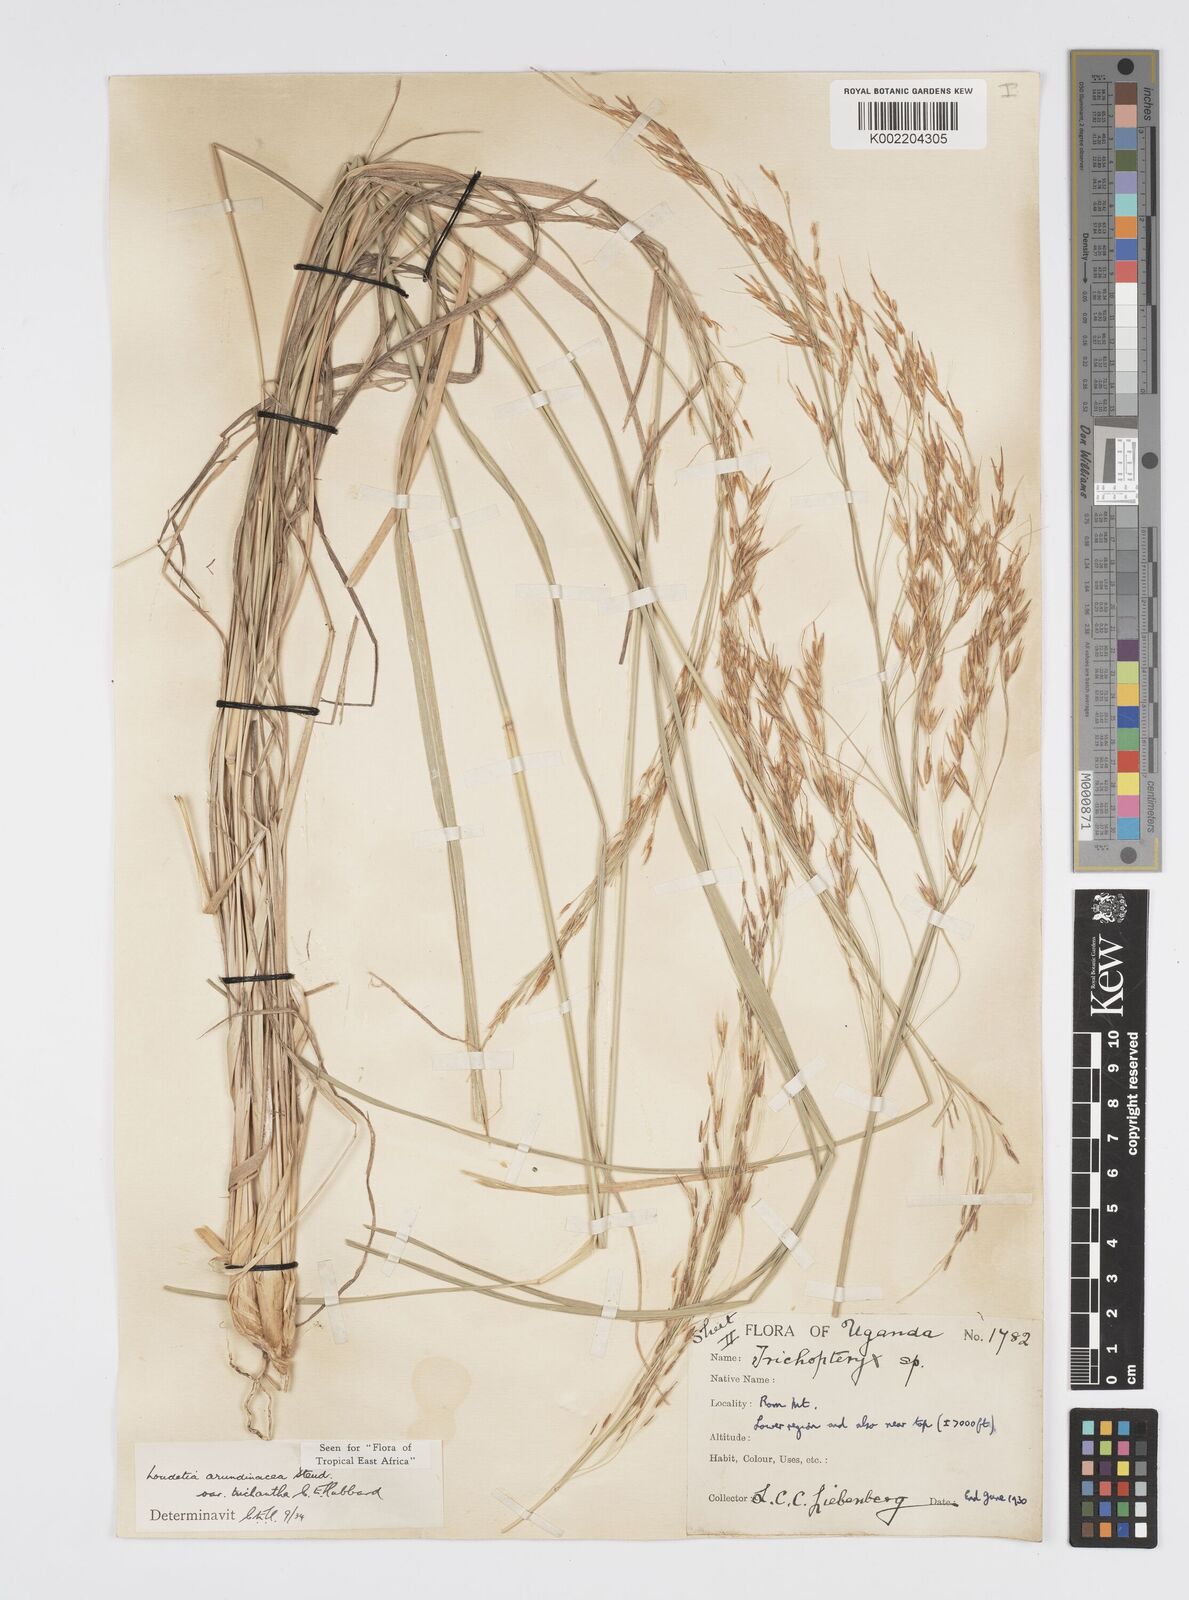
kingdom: Plantae
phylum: Tracheophyta
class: Liliopsida
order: Poales
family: Poaceae
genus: Loudetia
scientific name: Loudetia arundinacea
